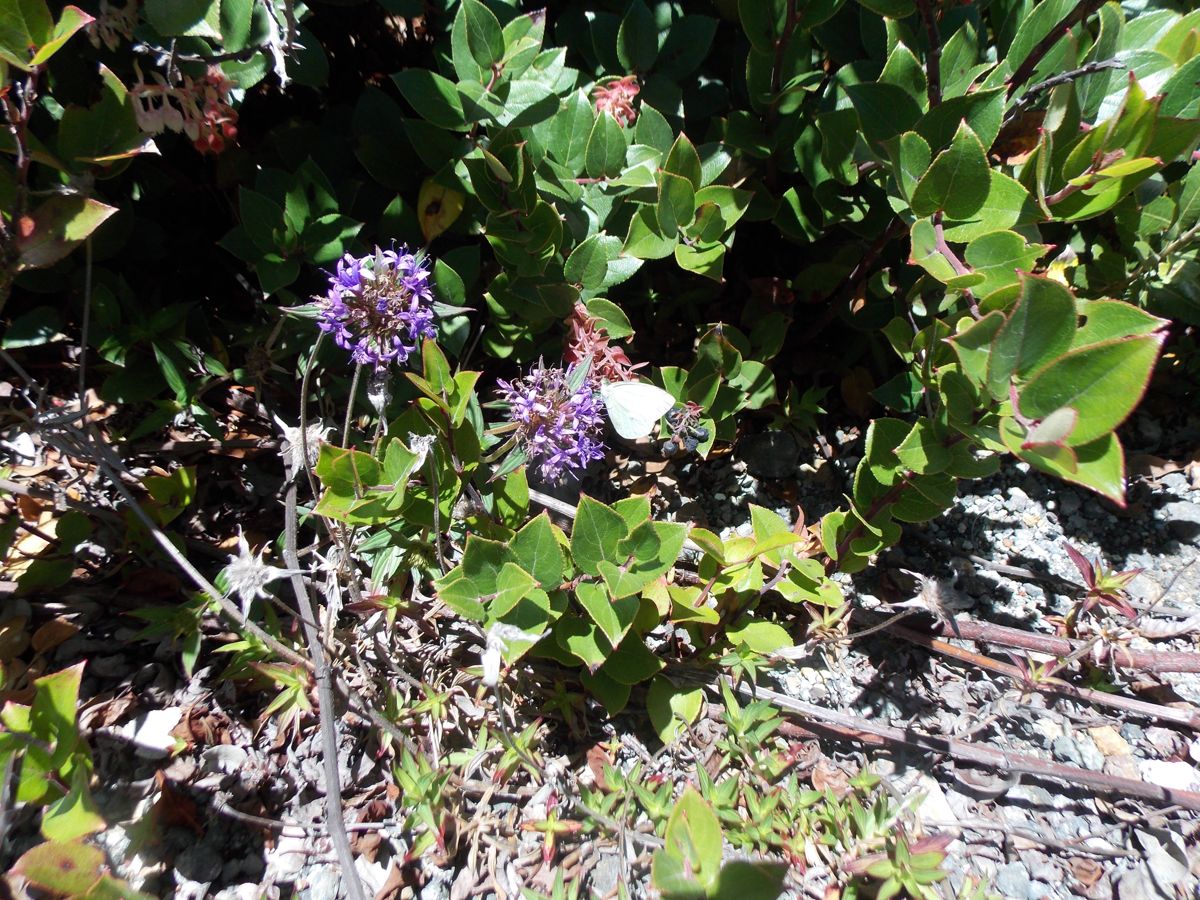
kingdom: Plantae
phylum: Tracheophyta
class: Magnoliopsida
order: Gentianales
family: Rubiaceae
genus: Crusea
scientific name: Crusea longiflora
